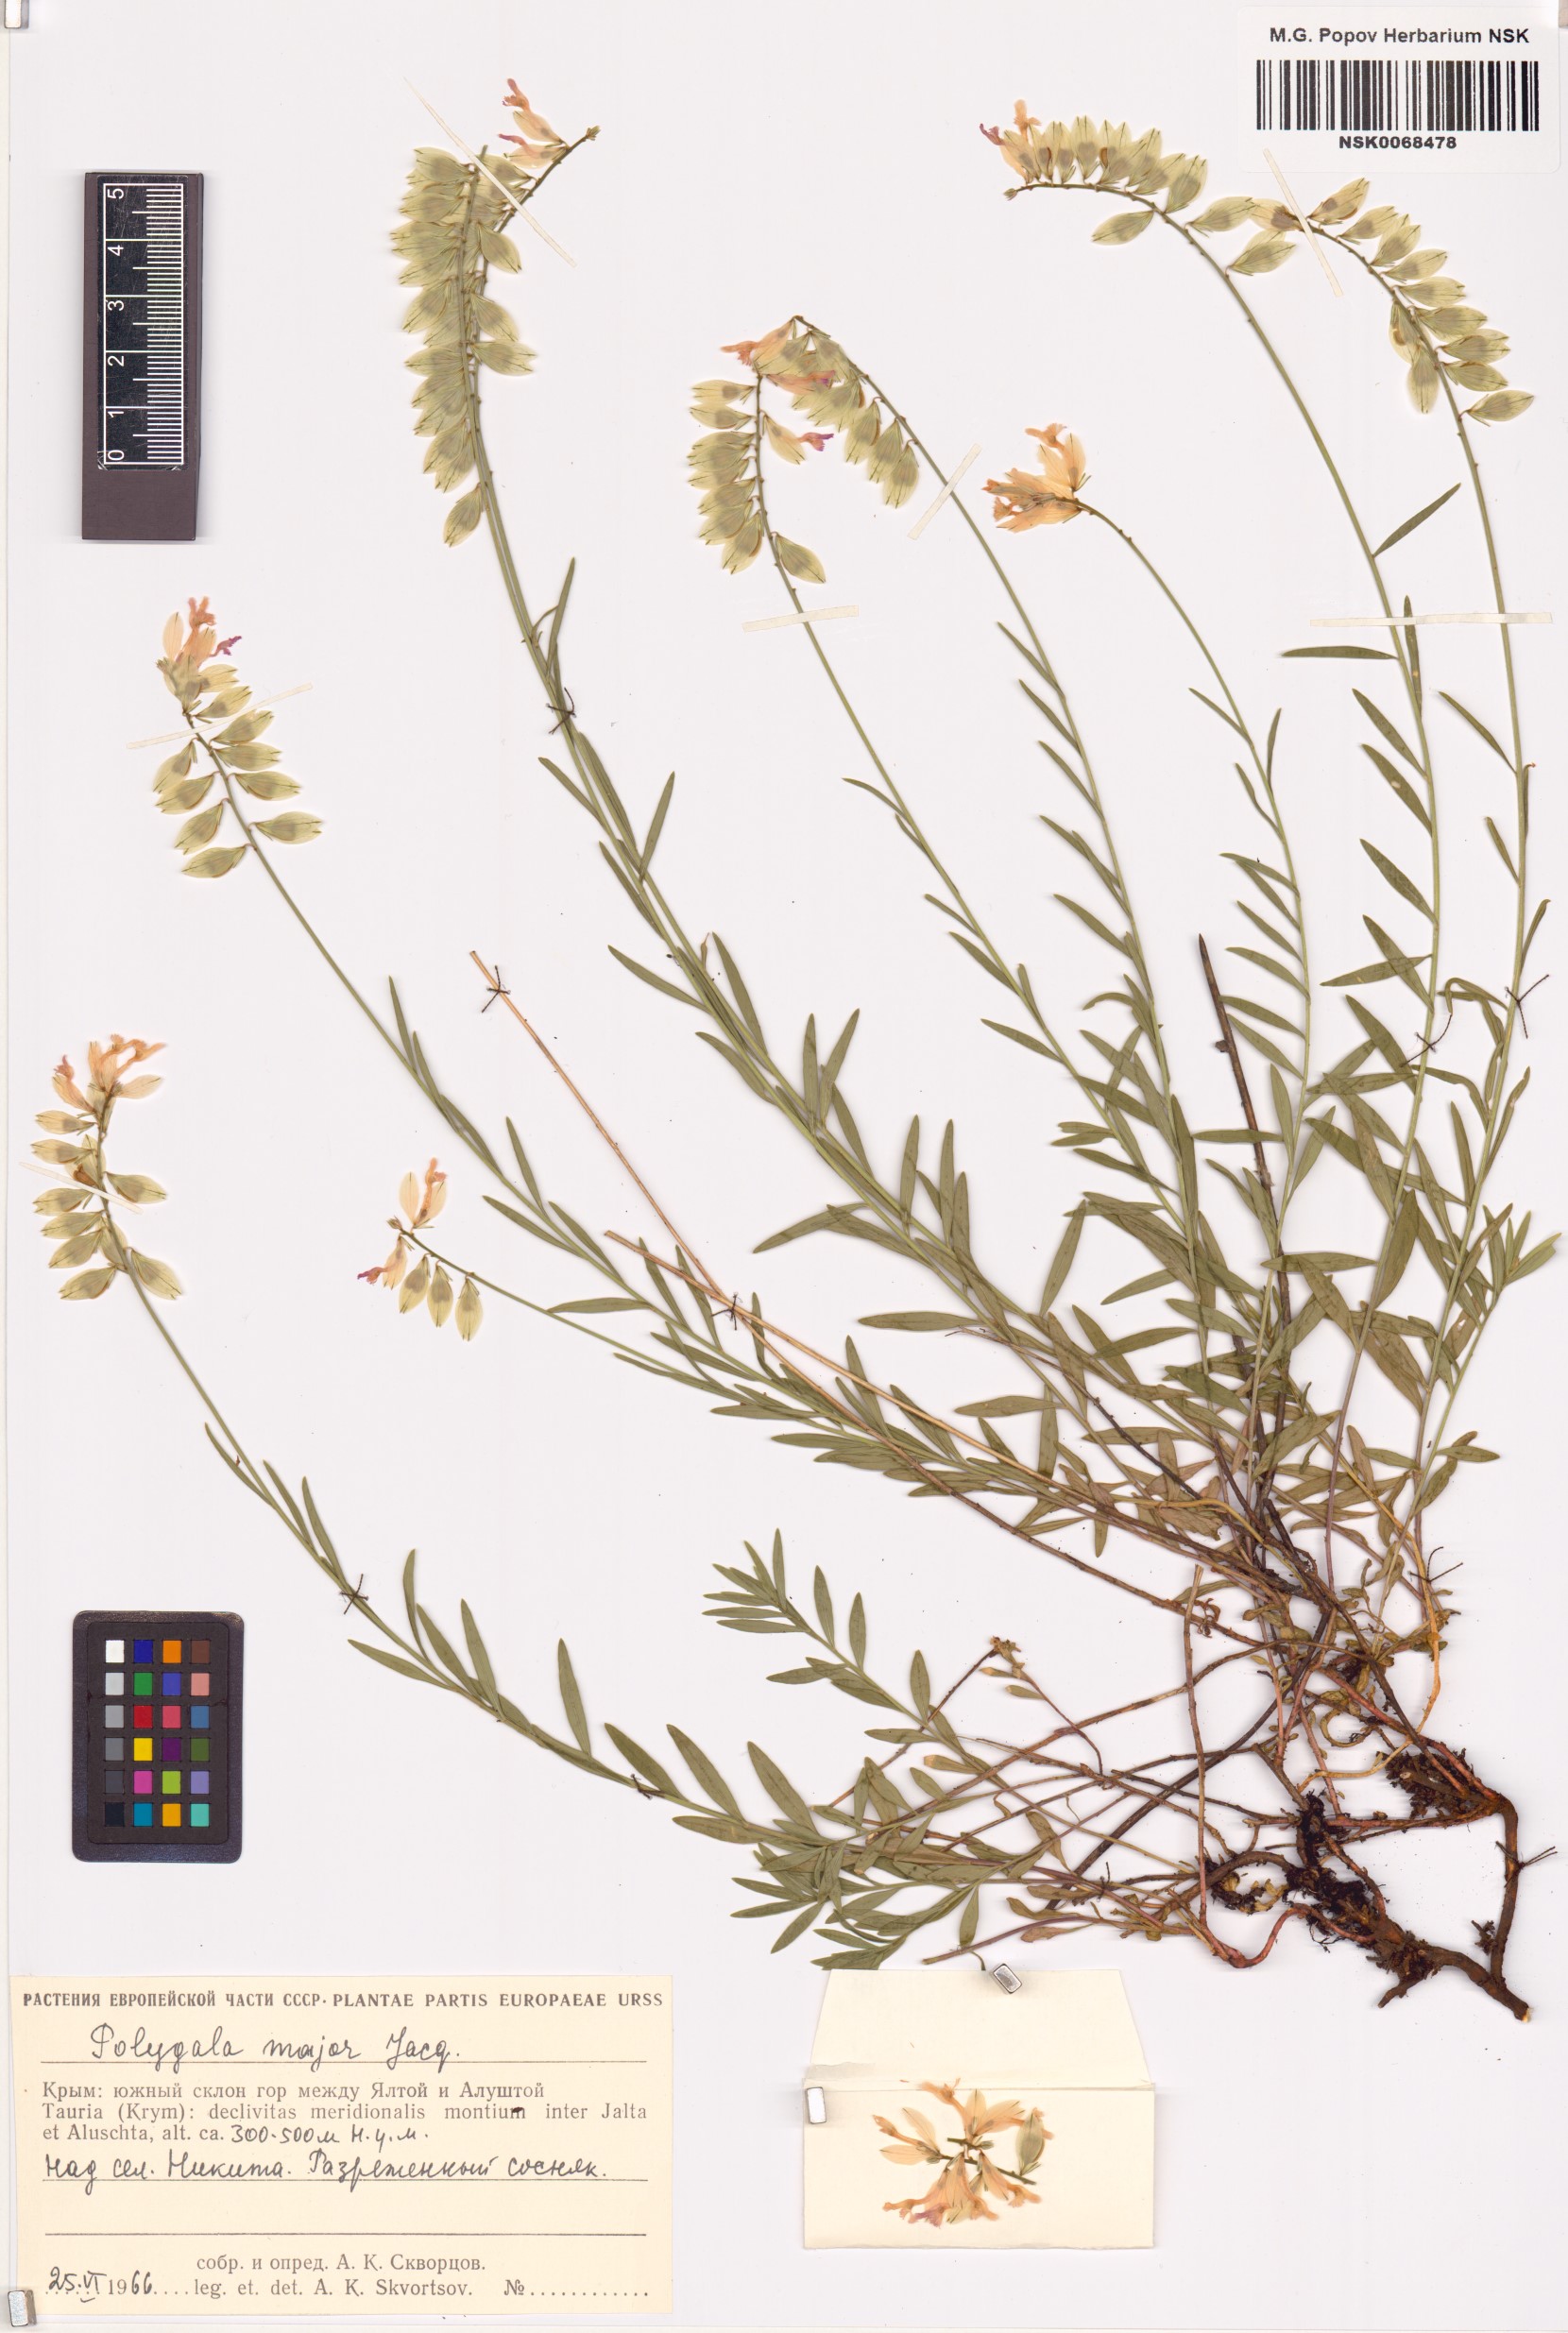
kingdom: Plantae
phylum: Tracheophyta
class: Magnoliopsida
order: Fabales
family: Polygalaceae
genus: Polygala
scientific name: Polygala major
